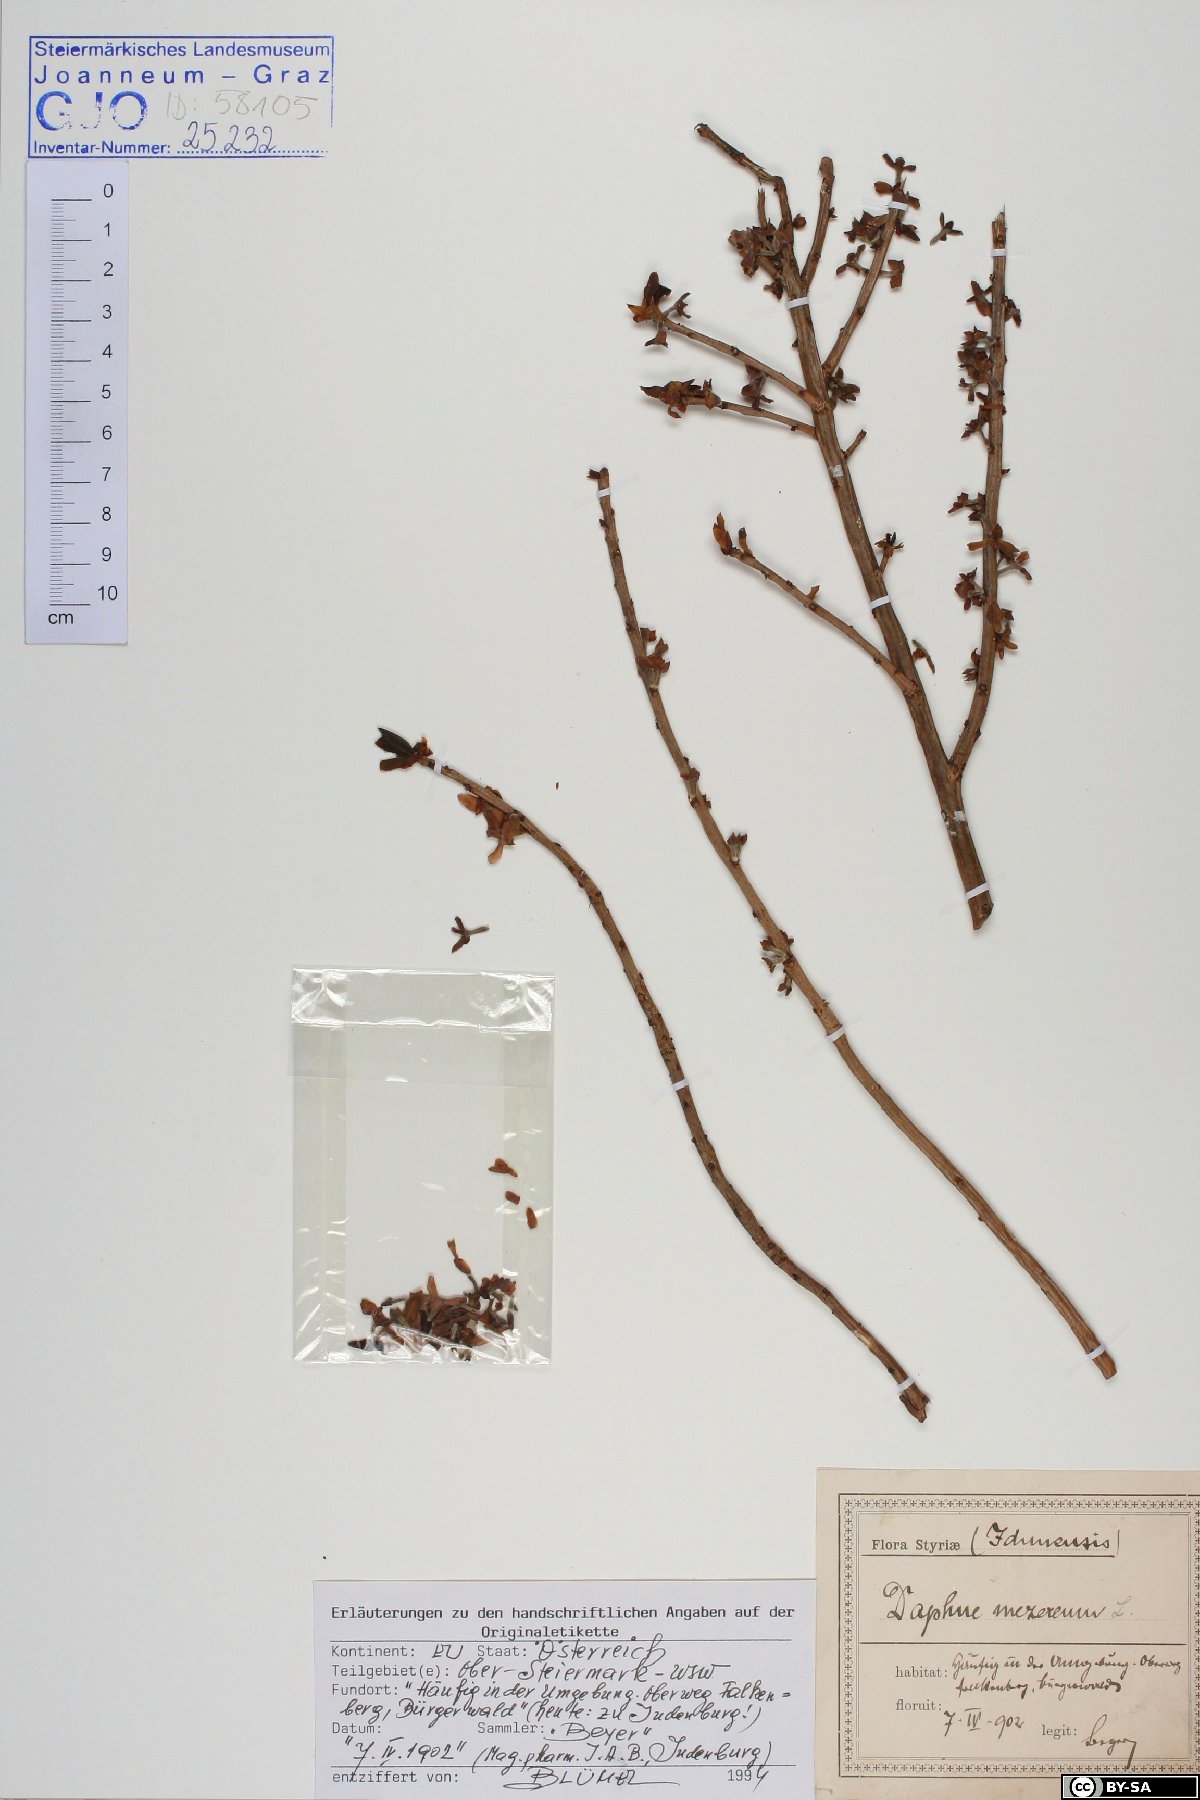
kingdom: Plantae
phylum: Tracheophyta
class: Magnoliopsida
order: Malvales
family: Thymelaeaceae
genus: Daphne
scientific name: Daphne mezereum
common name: Mezereon
